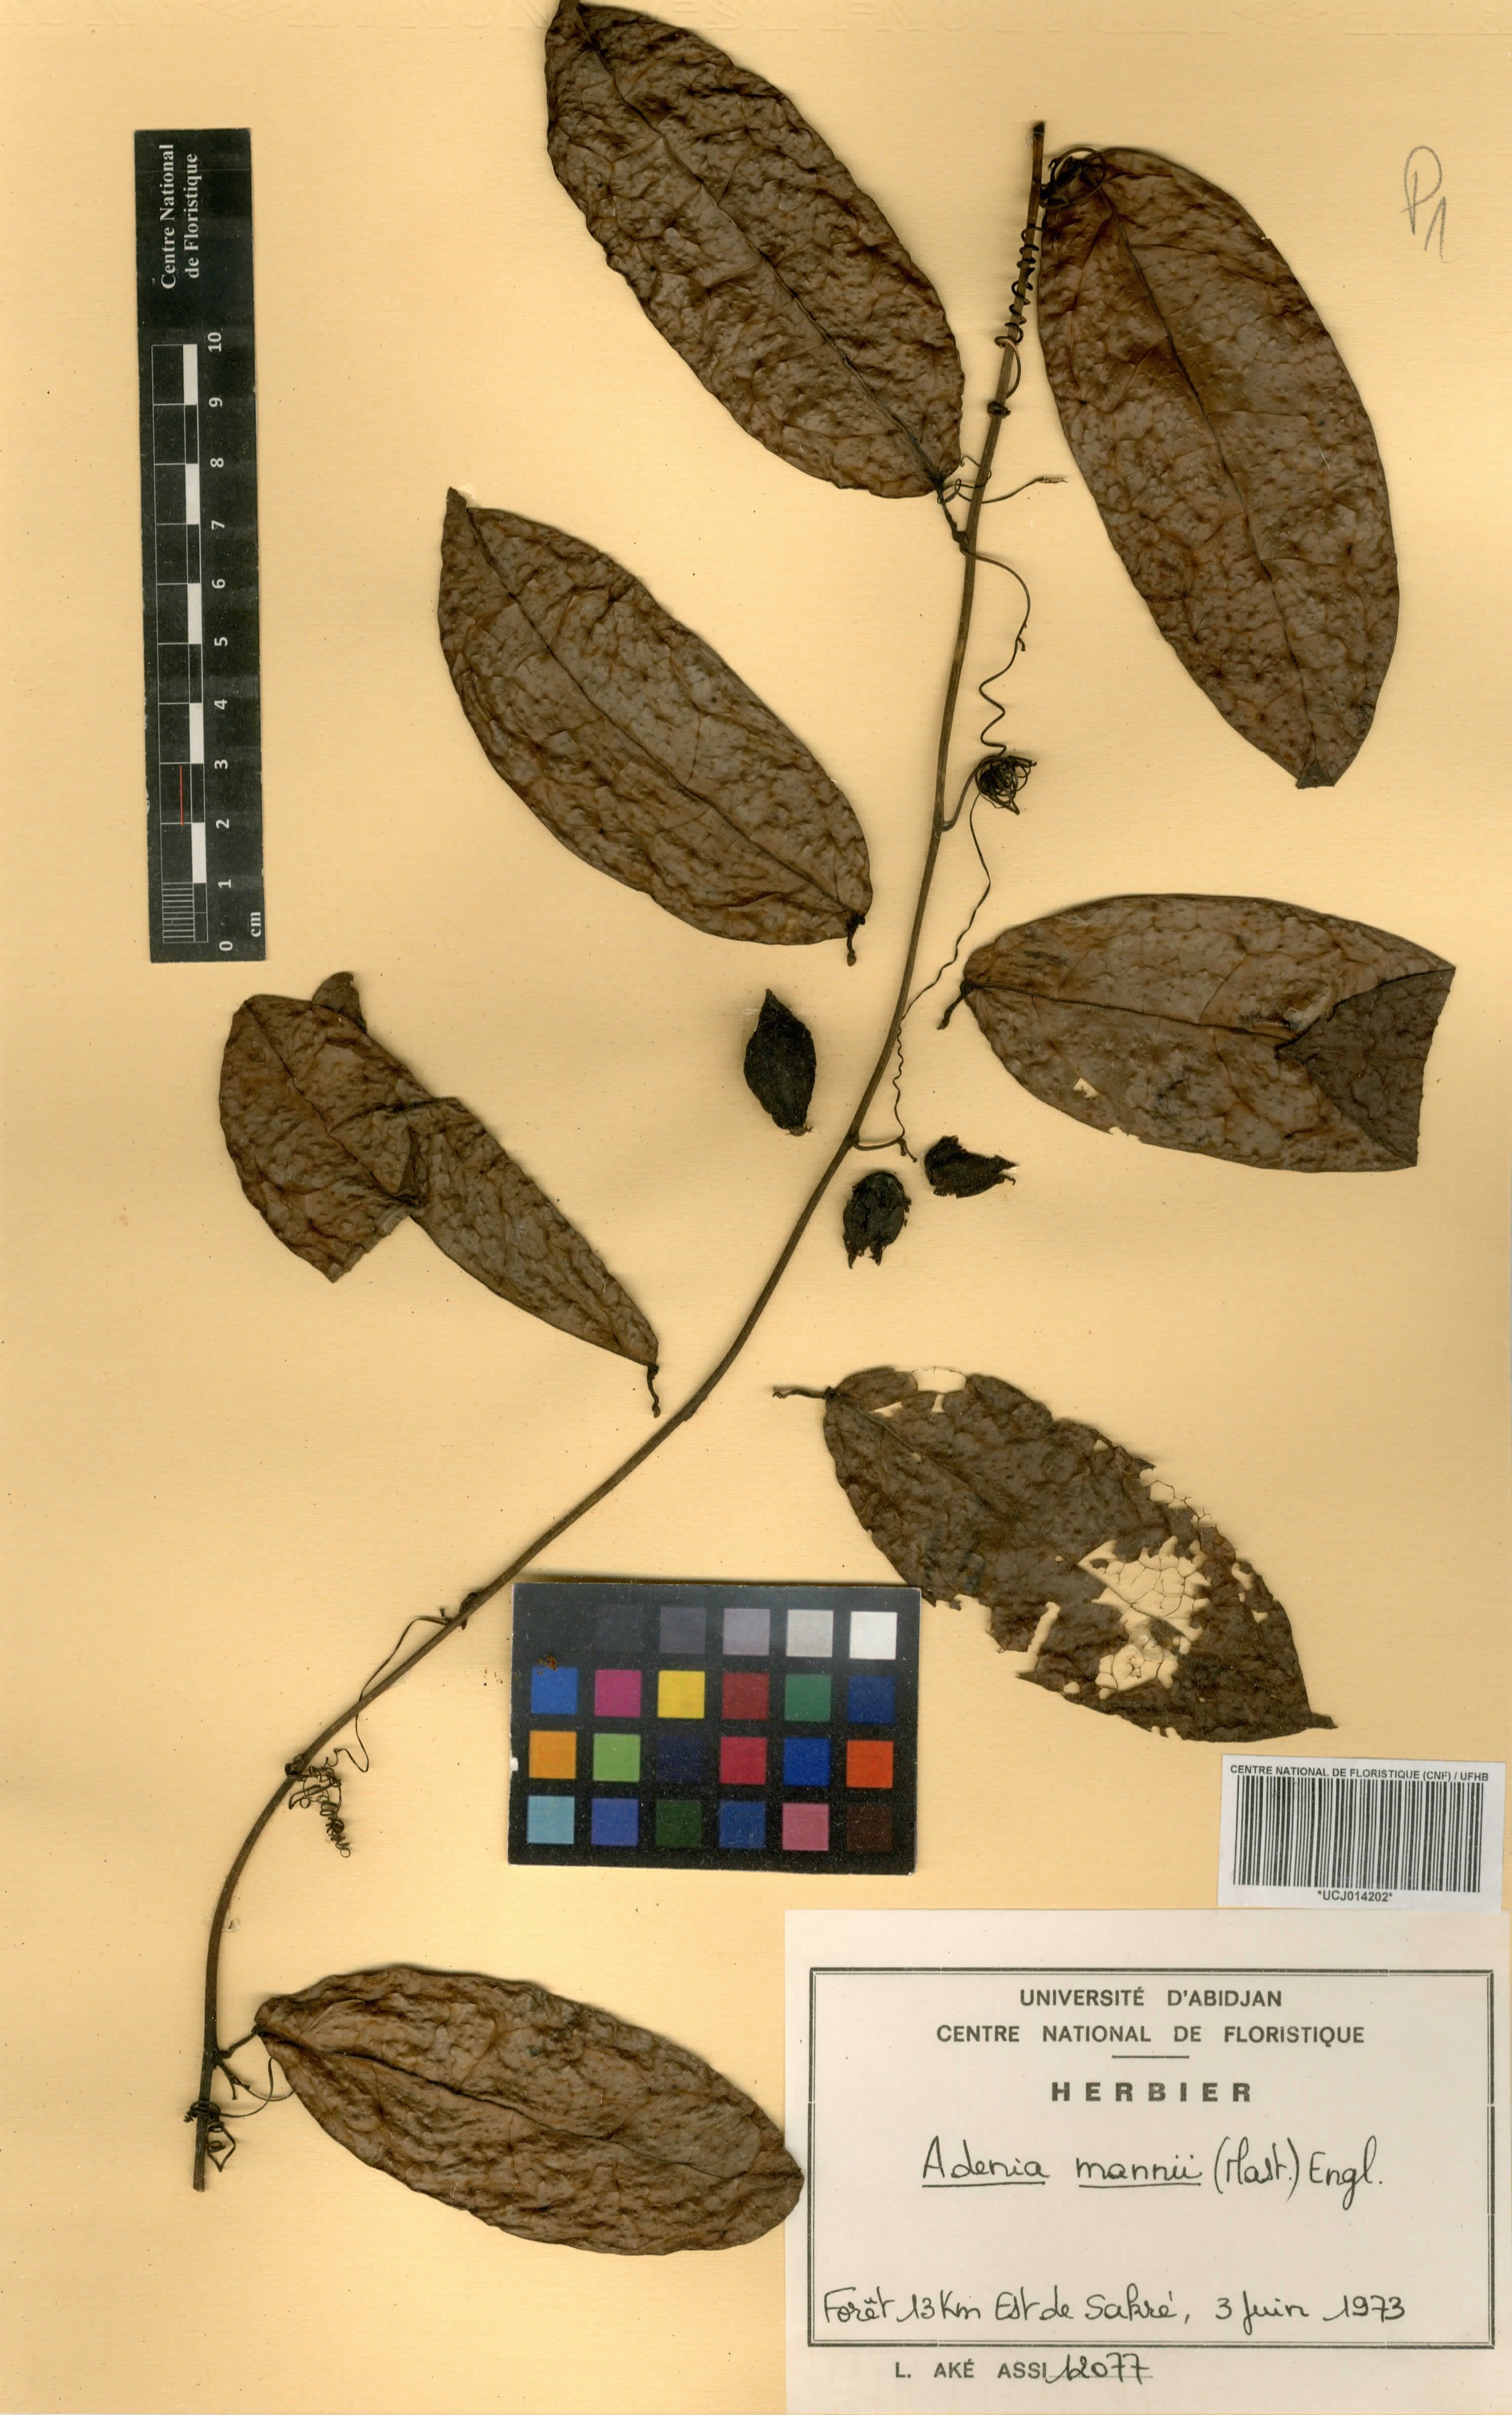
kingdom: Plantae
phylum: Tracheophyta
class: Magnoliopsida
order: Malpighiales
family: Passifloraceae
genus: Adenia
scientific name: Adenia mannii
